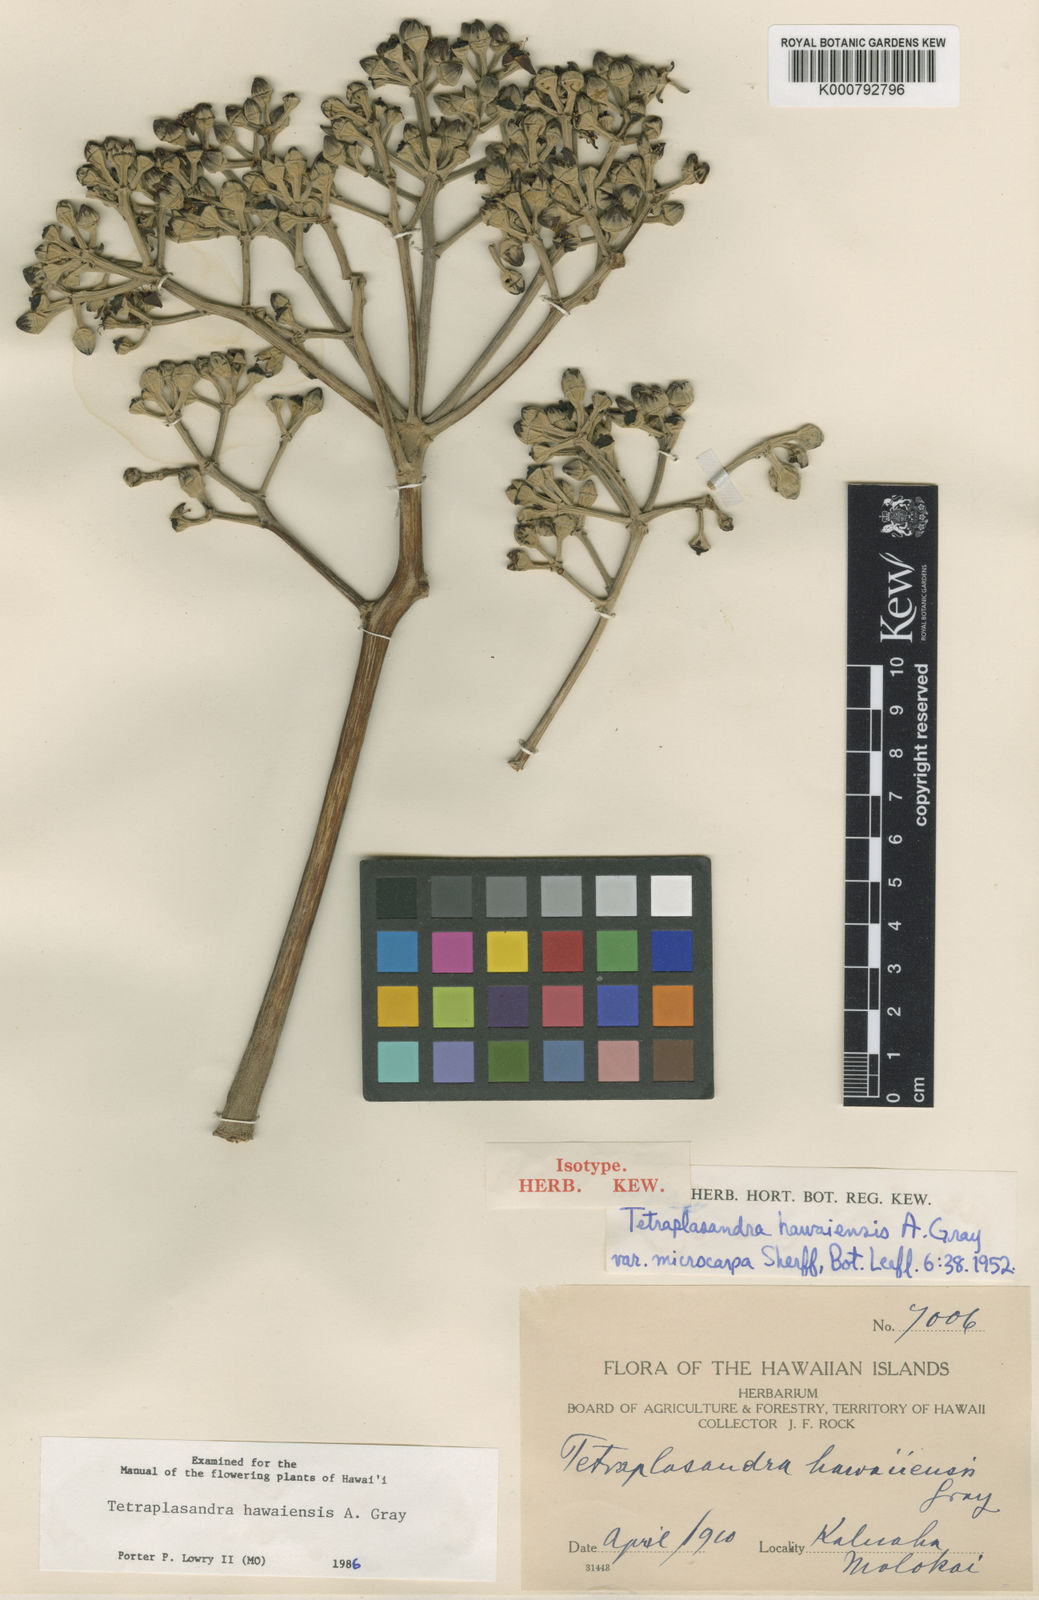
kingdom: Plantae
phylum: Tracheophyta
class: Magnoliopsida
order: Apiales
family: Araliaceae
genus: Polyscias
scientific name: Polyscias hawaiensis
